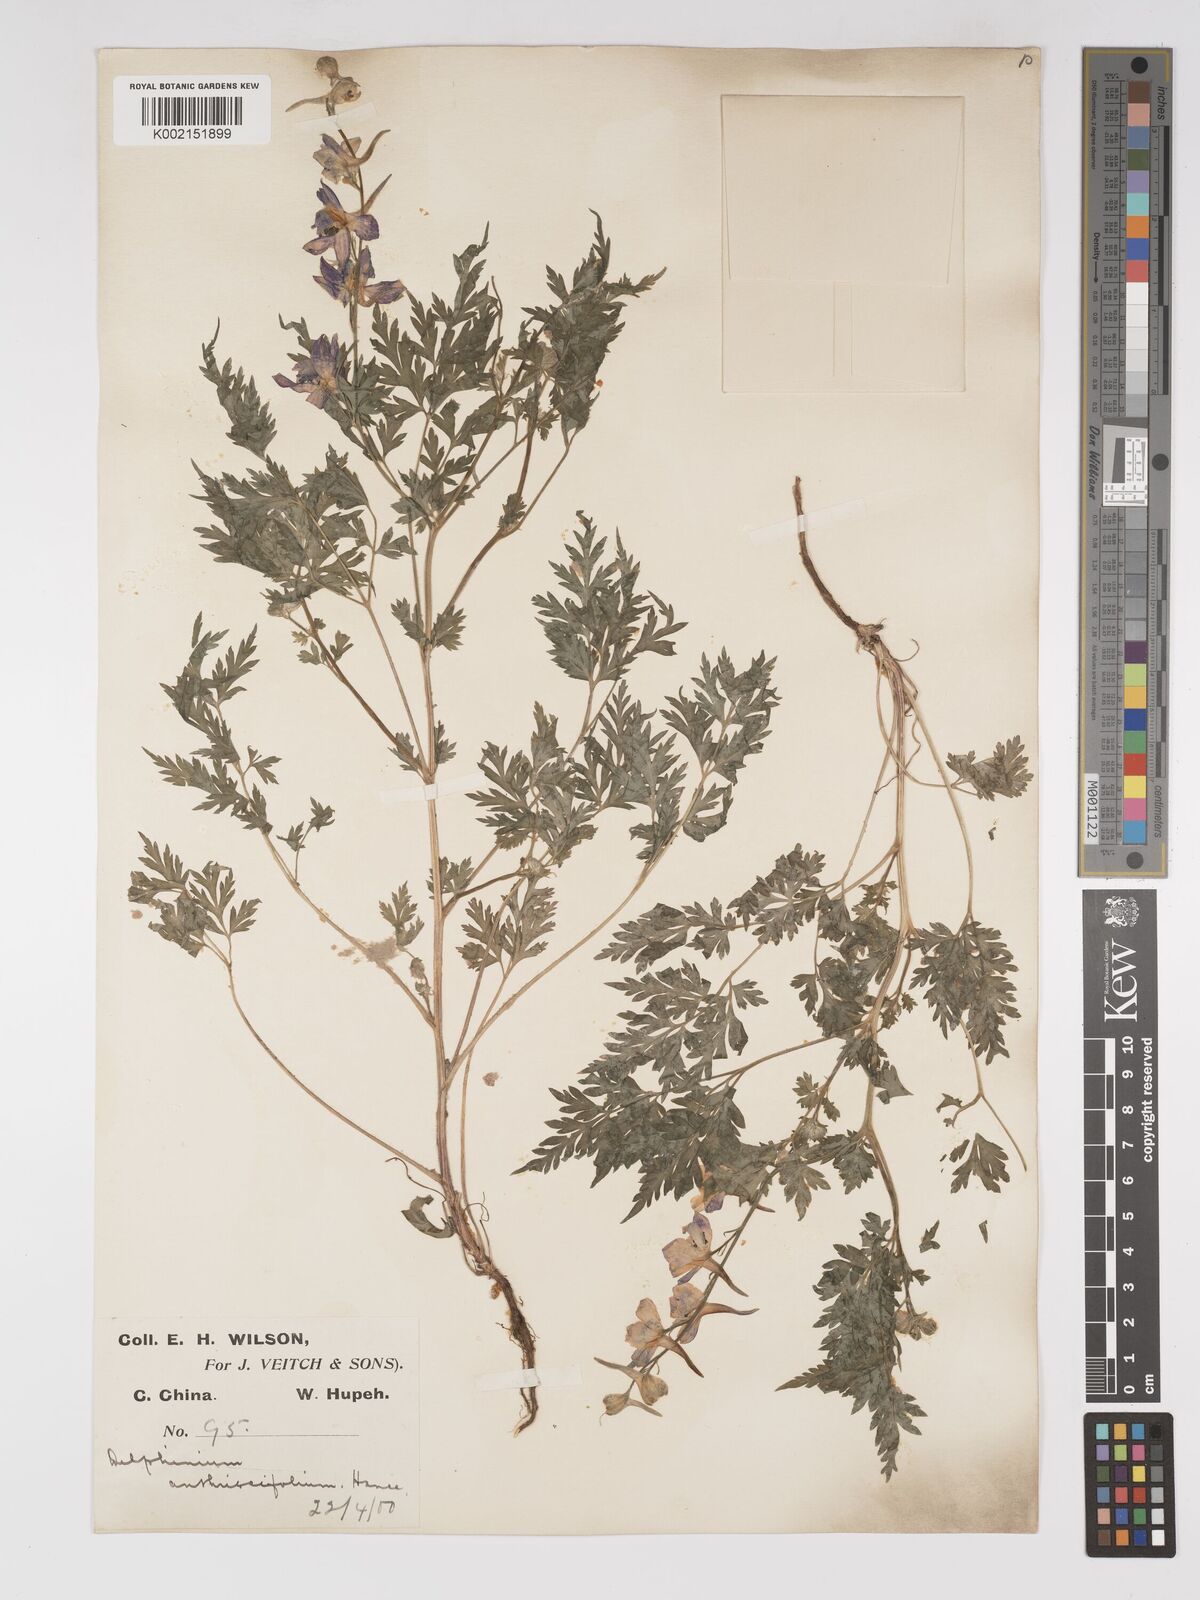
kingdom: Plantae
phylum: Tracheophyta
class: Magnoliopsida
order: Ranunculales
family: Ranunculaceae
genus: Delphinium
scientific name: Delphinium anthriscifolium
